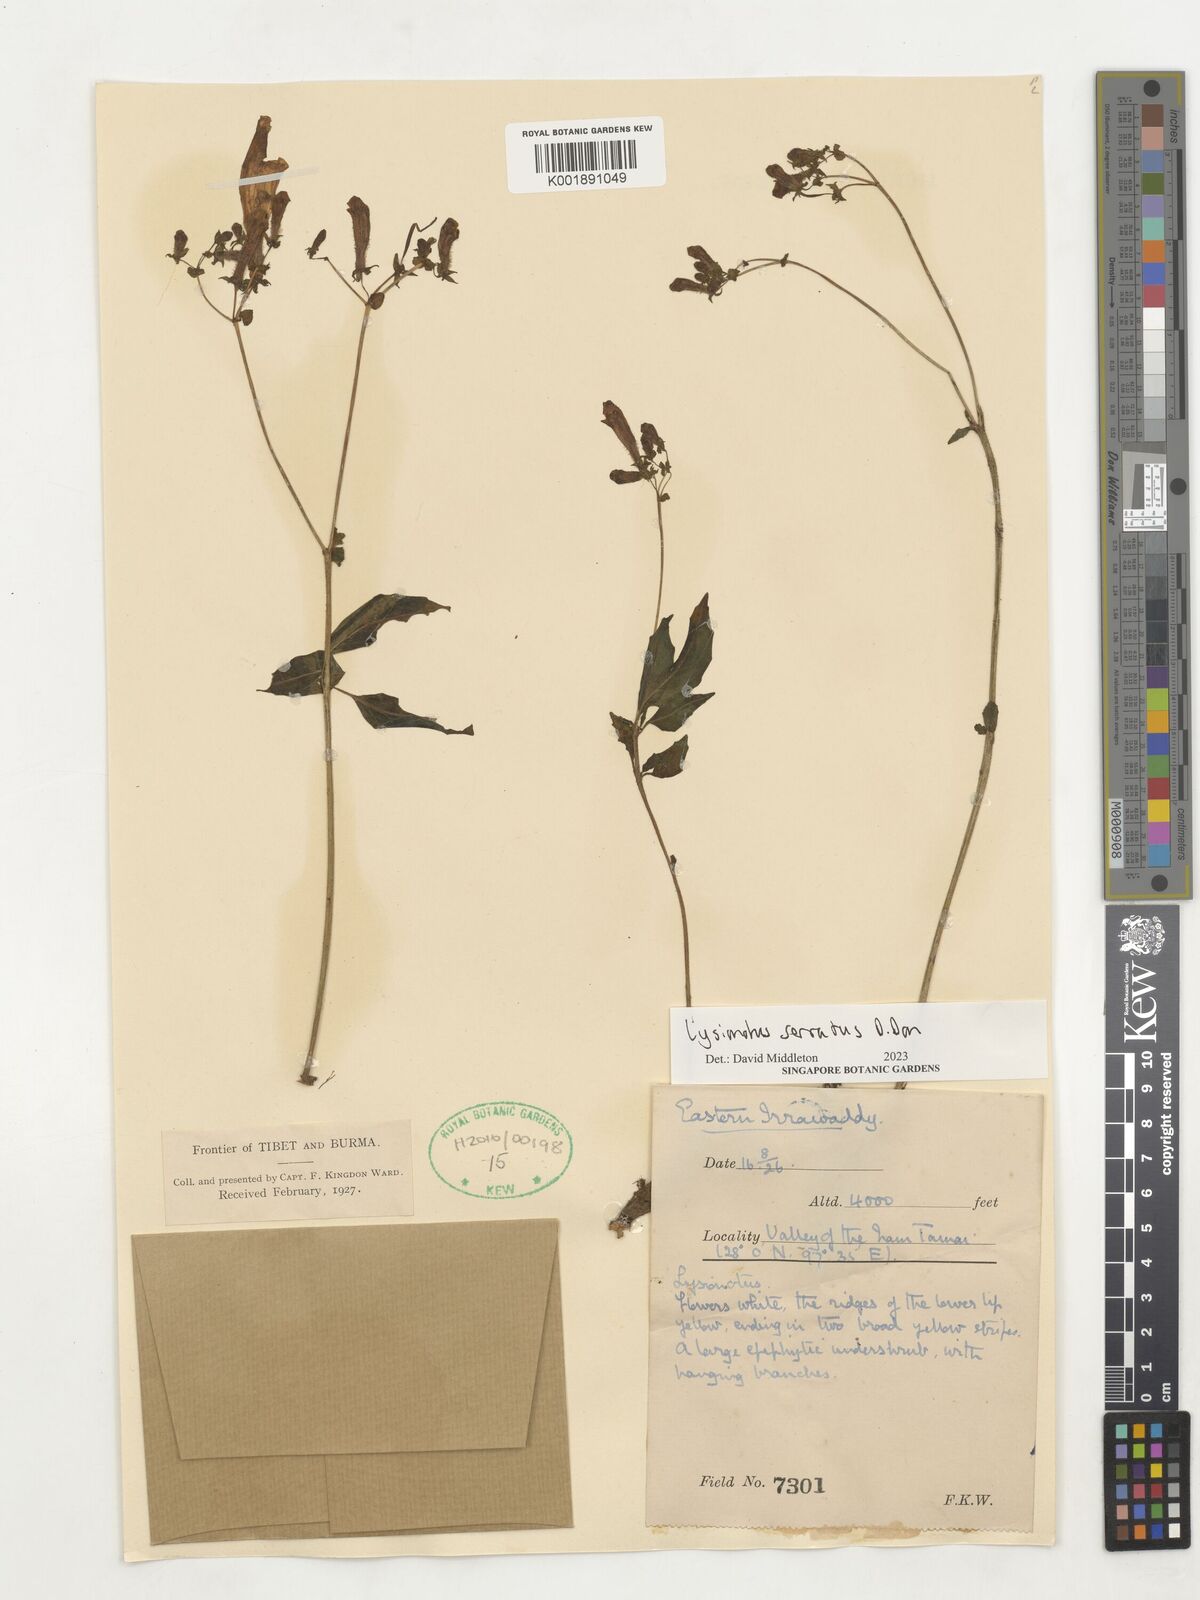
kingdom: Plantae
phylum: Tracheophyta
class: Magnoliopsida
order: Lamiales
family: Gesneriaceae
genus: Lysionotus
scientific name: Lysionotus serratus
